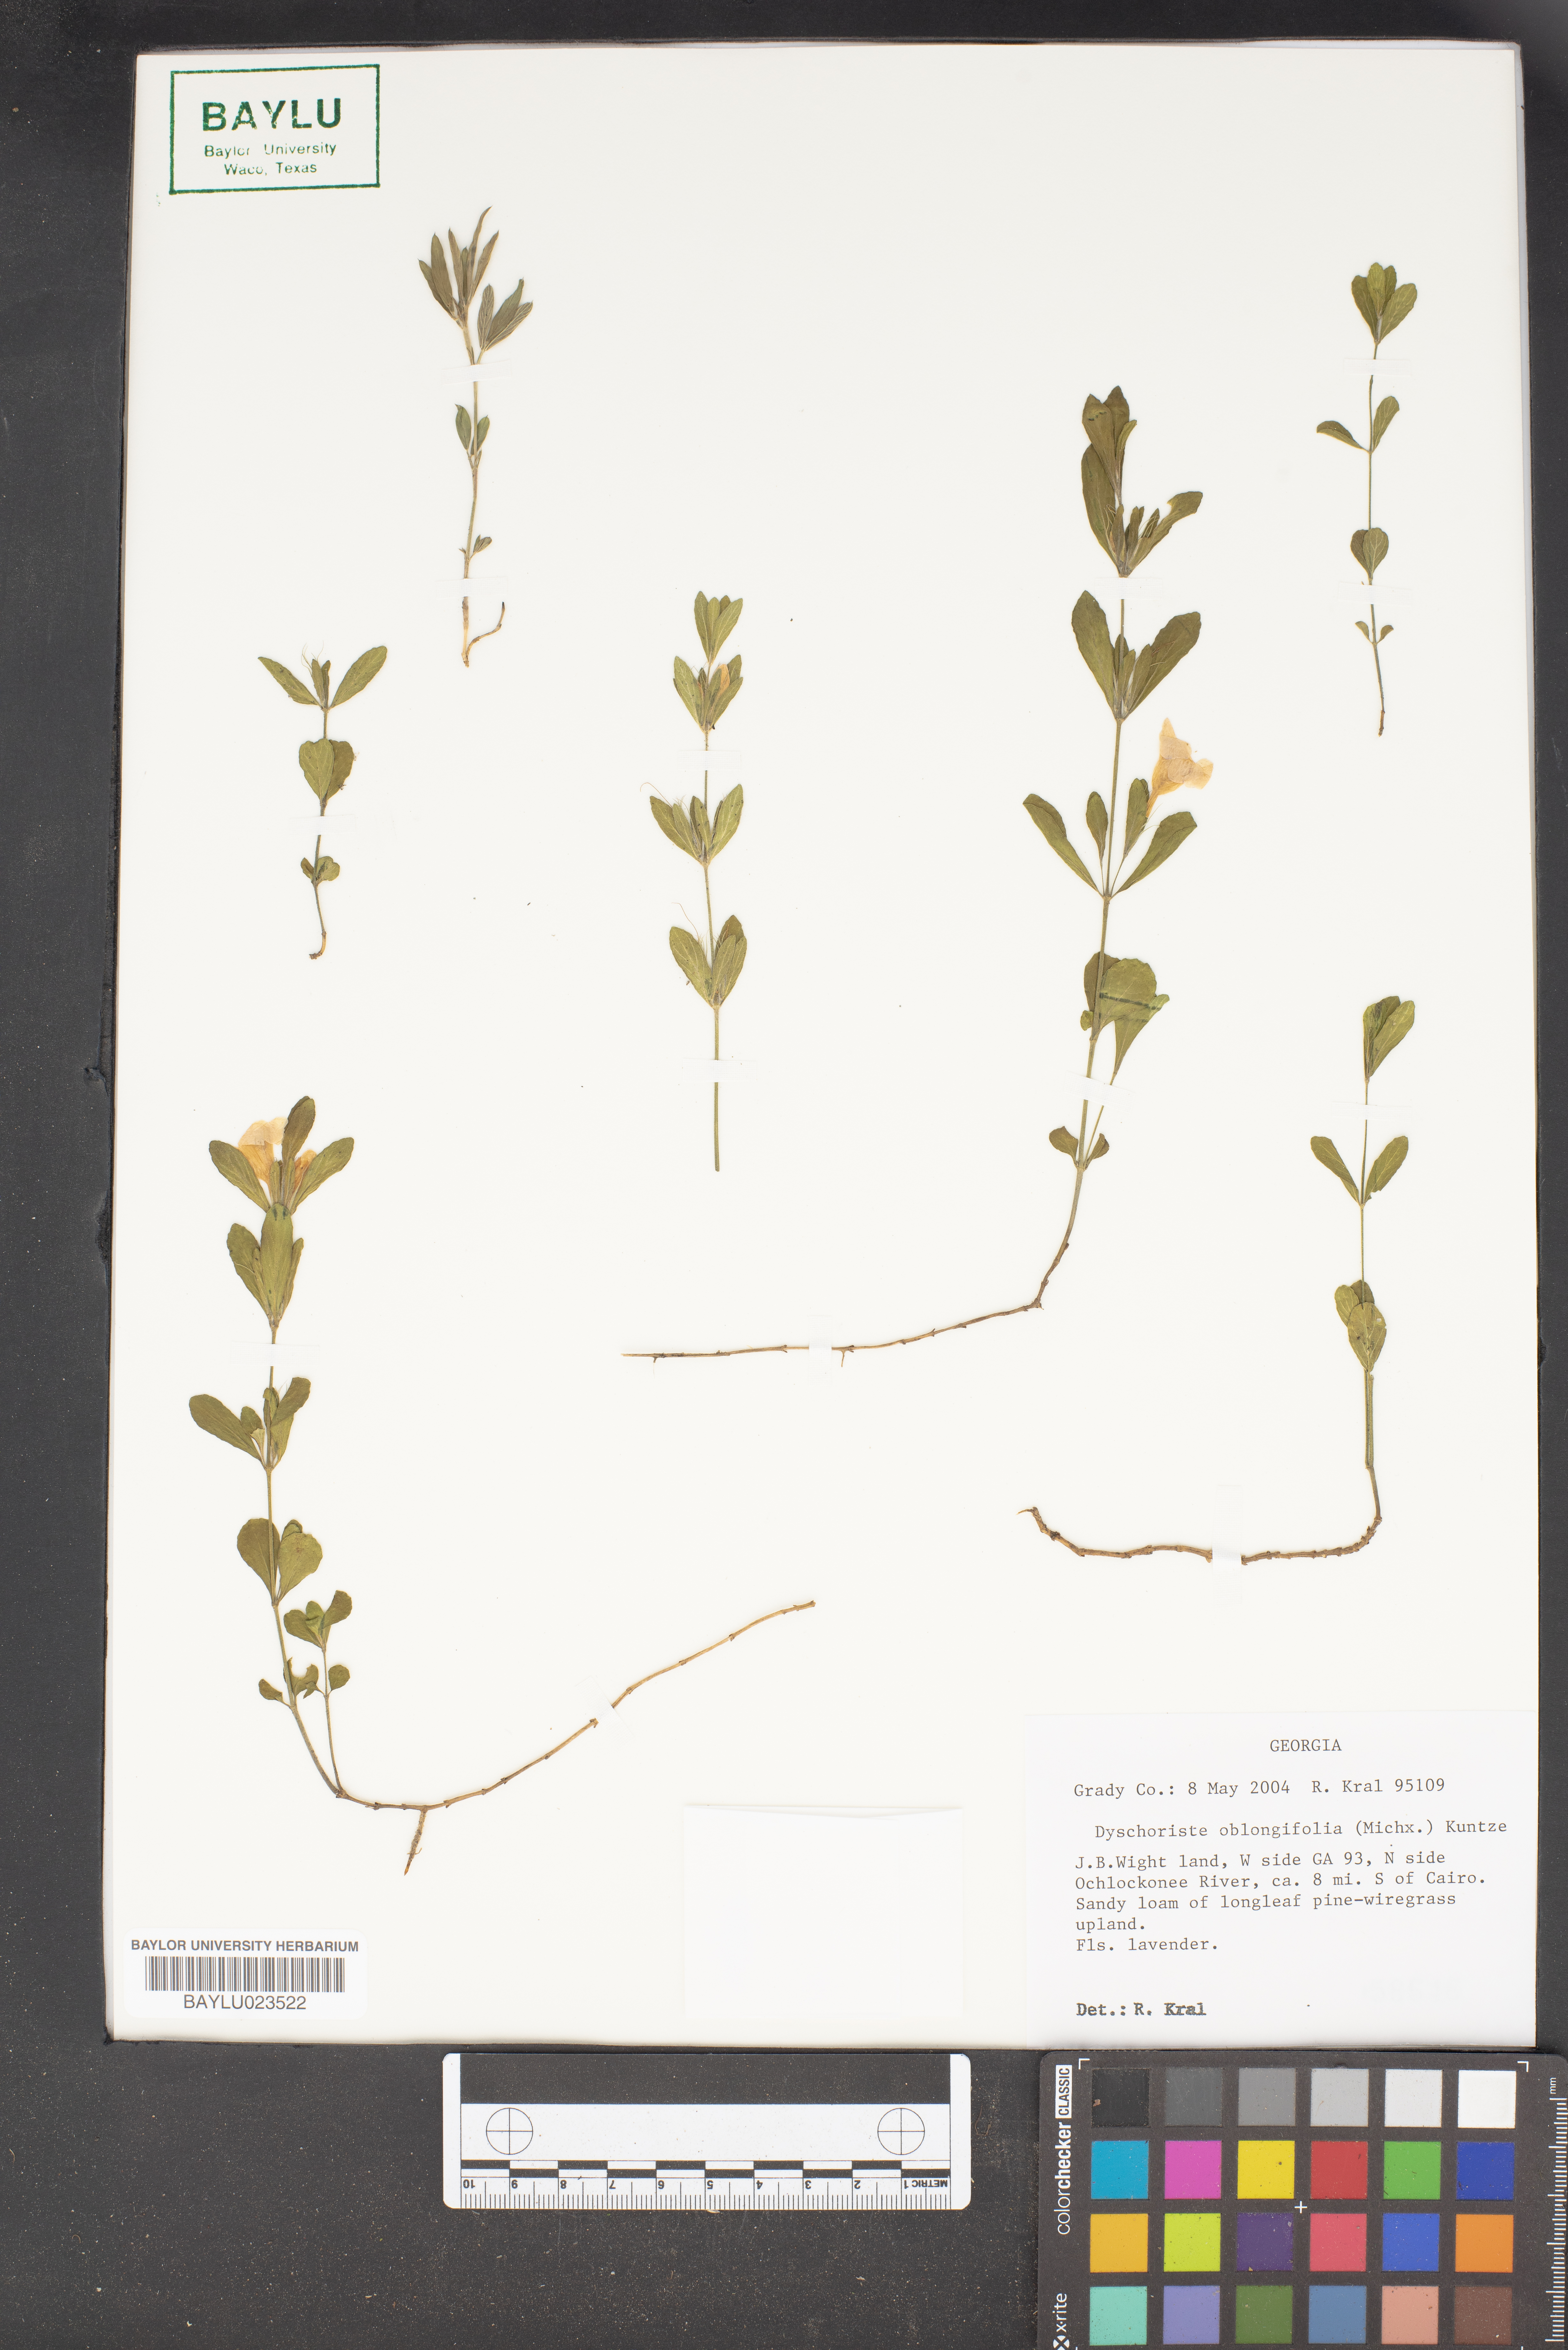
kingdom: Plantae
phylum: Tracheophyta
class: Magnoliopsida
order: Lamiales
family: Acanthaceae
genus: Dyschoriste
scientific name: Dyschoriste oblongifolia
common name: Blue twinflower
